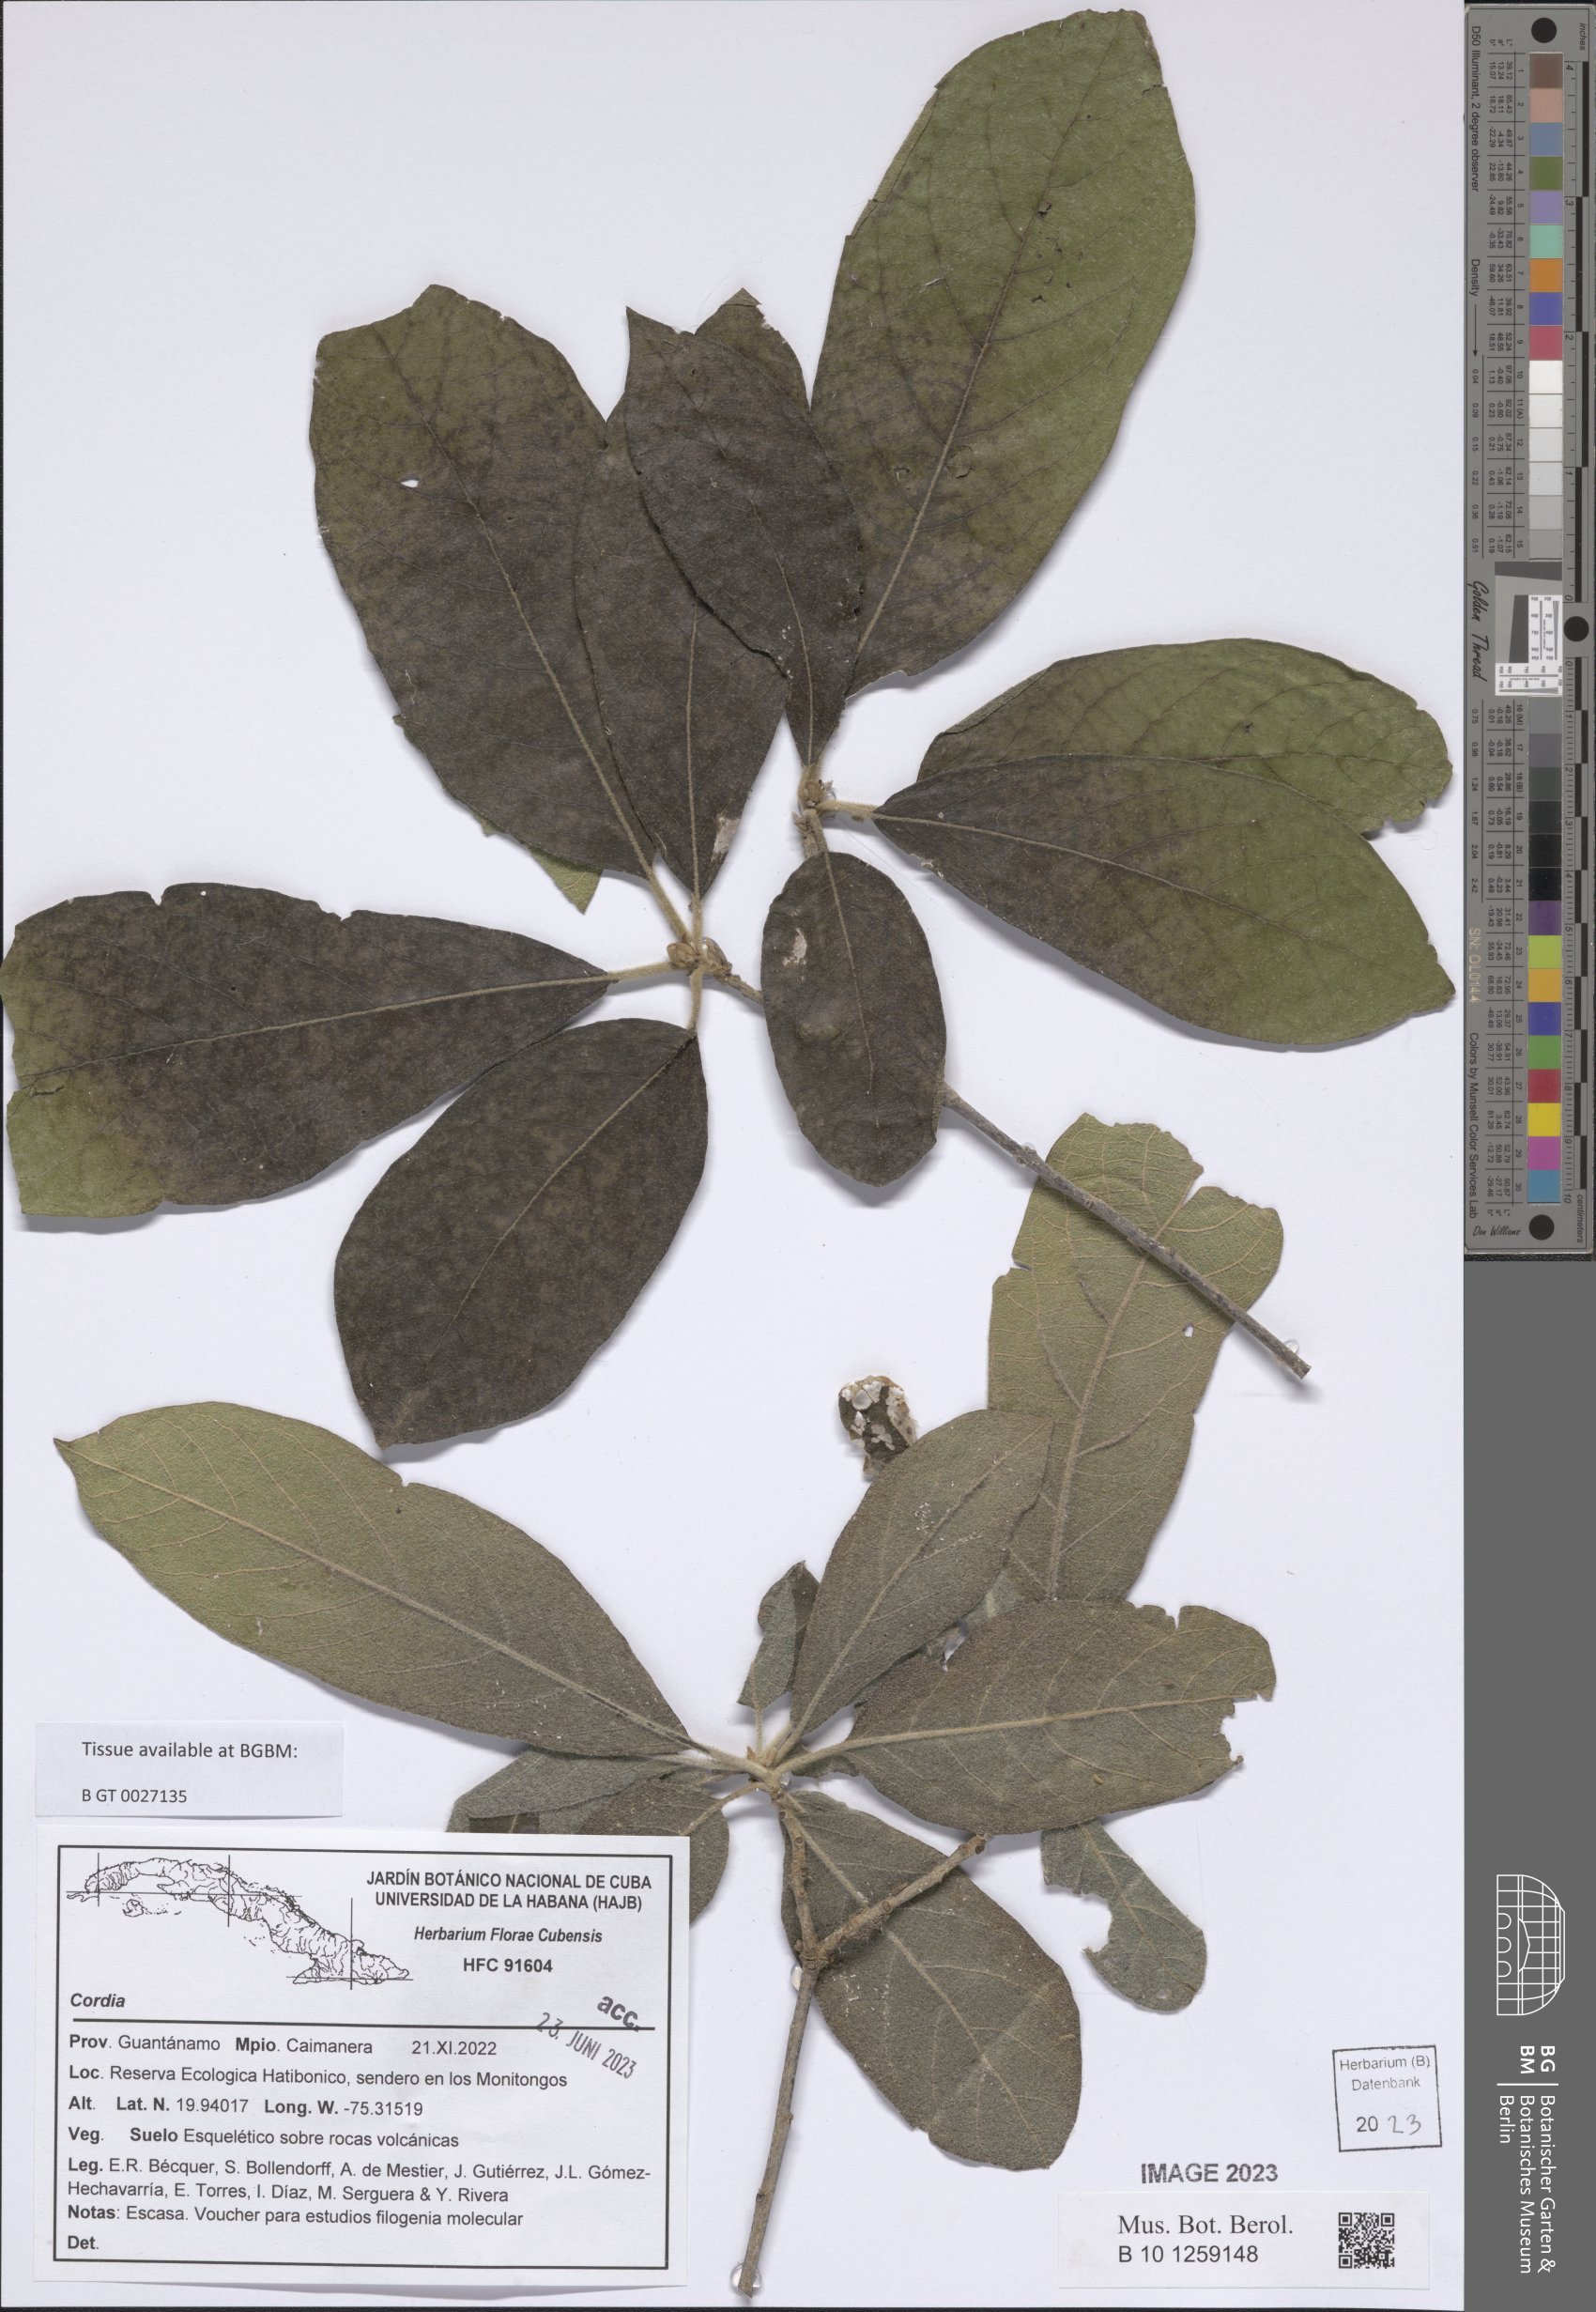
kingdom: Plantae
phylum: Tracheophyta
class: Magnoliopsida
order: Boraginales
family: Cordiaceae
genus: Cordia
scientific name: Cordia
